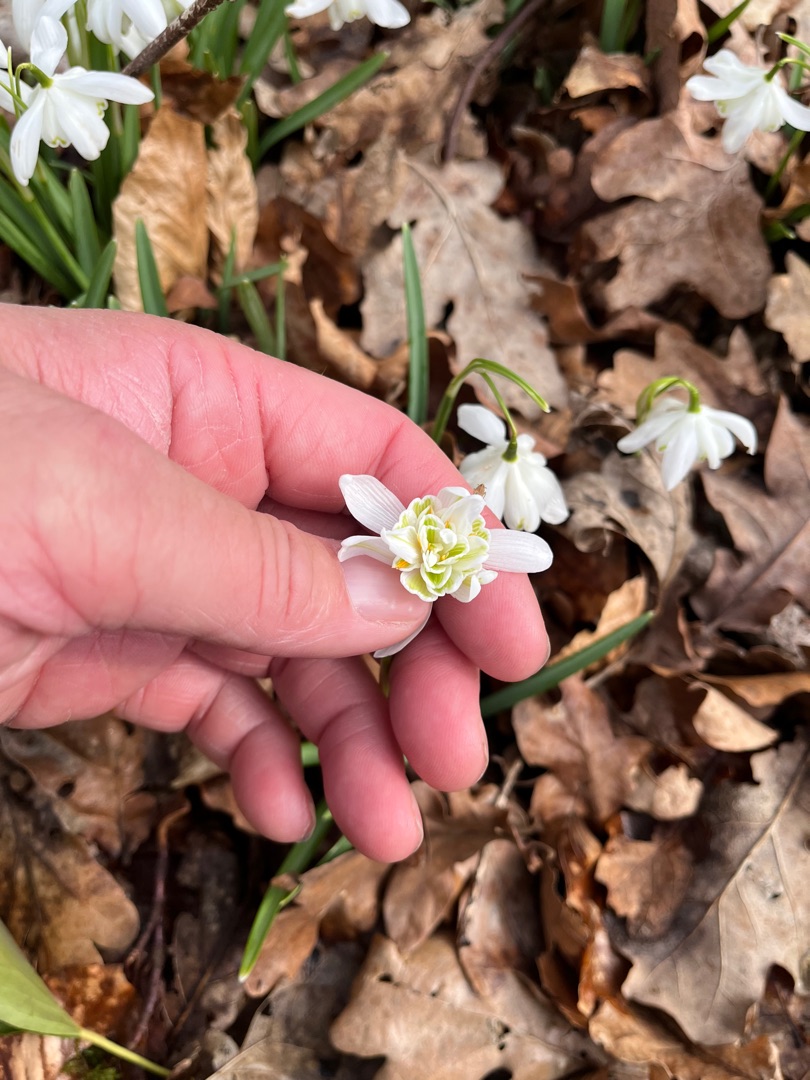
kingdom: Plantae
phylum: Tracheophyta
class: Liliopsida
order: Asparagales
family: Amaryllidaceae
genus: Galanthus
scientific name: Galanthus nivalis
